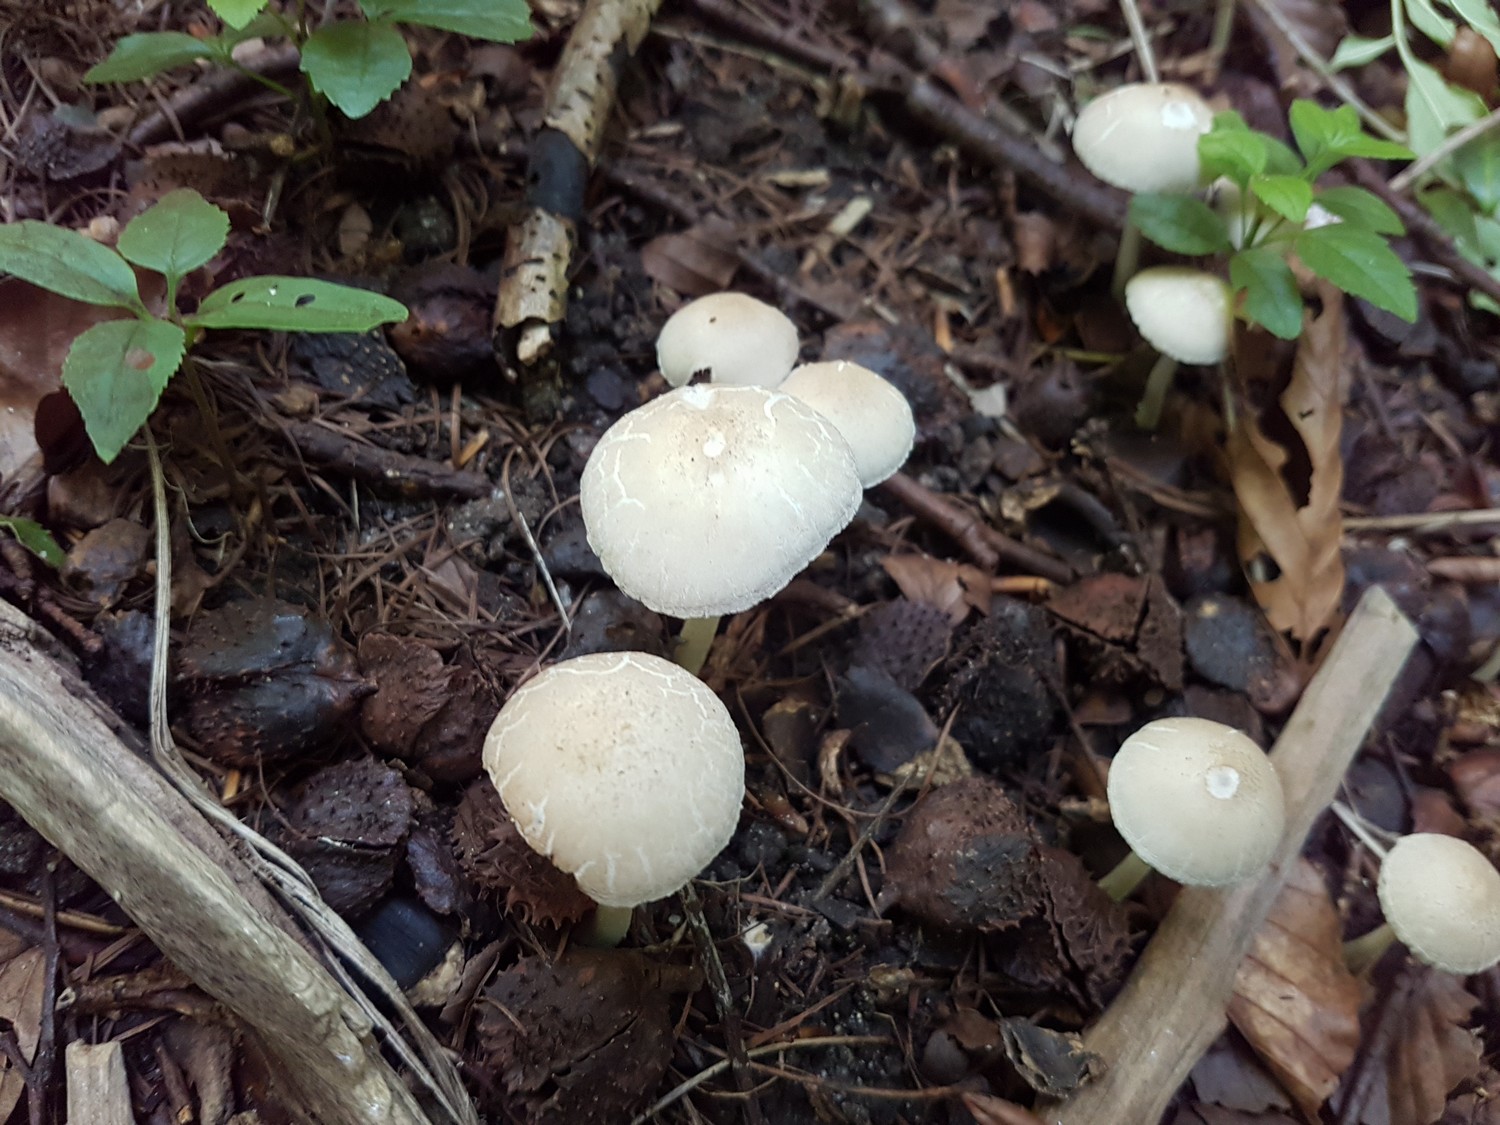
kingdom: Fungi
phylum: Basidiomycota
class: Agaricomycetes
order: Agaricales
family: Psathyrellaceae
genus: Candolleomyces
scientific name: Candolleomyces candolleanus
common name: Candolles mørkhat
